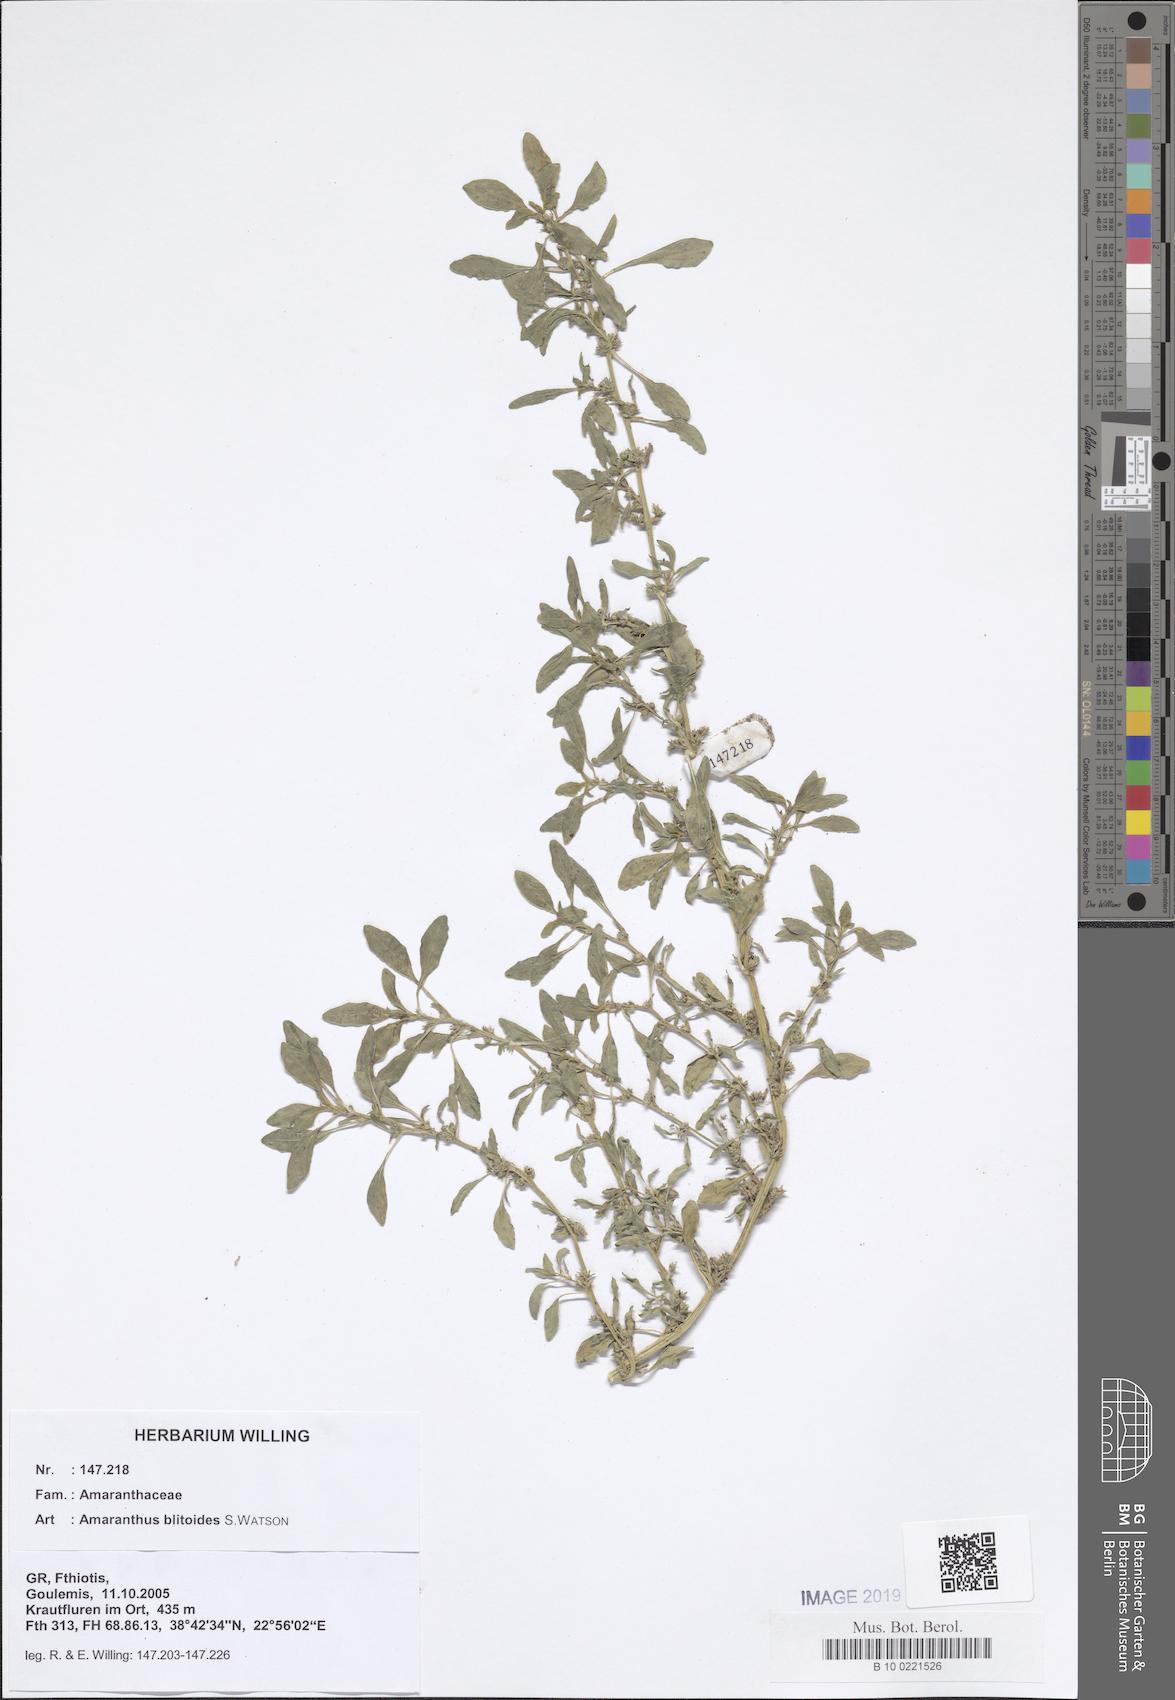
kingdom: Plantae
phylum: Tracheophyta
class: Magnoliopsida
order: Caryophyllales
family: Amaranthaceae
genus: Amaranthus
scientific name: Amaranthus blitoides
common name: Prostrate pigweed
